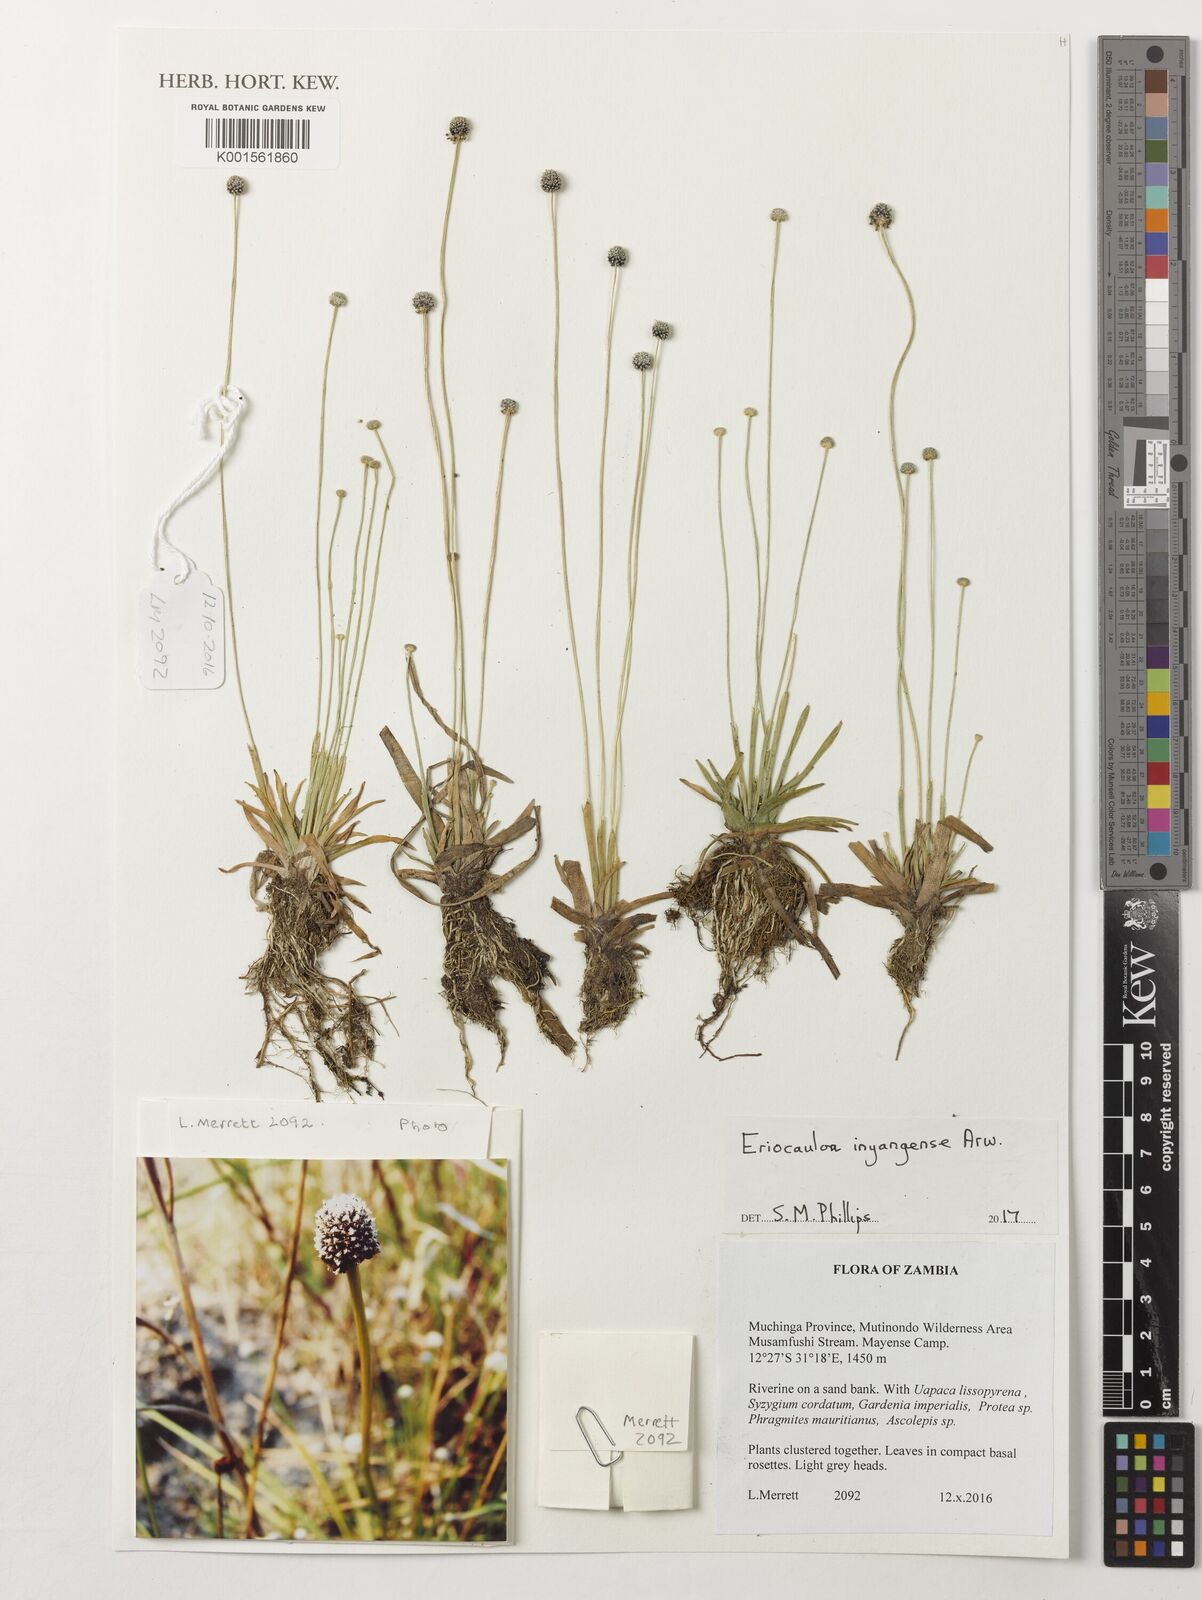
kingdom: Plantae
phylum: Tracheophyta
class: Liliopsida
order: Poales
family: Eriocaulaceae
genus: Eriocaulon
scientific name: Eriocaulon inyangense
